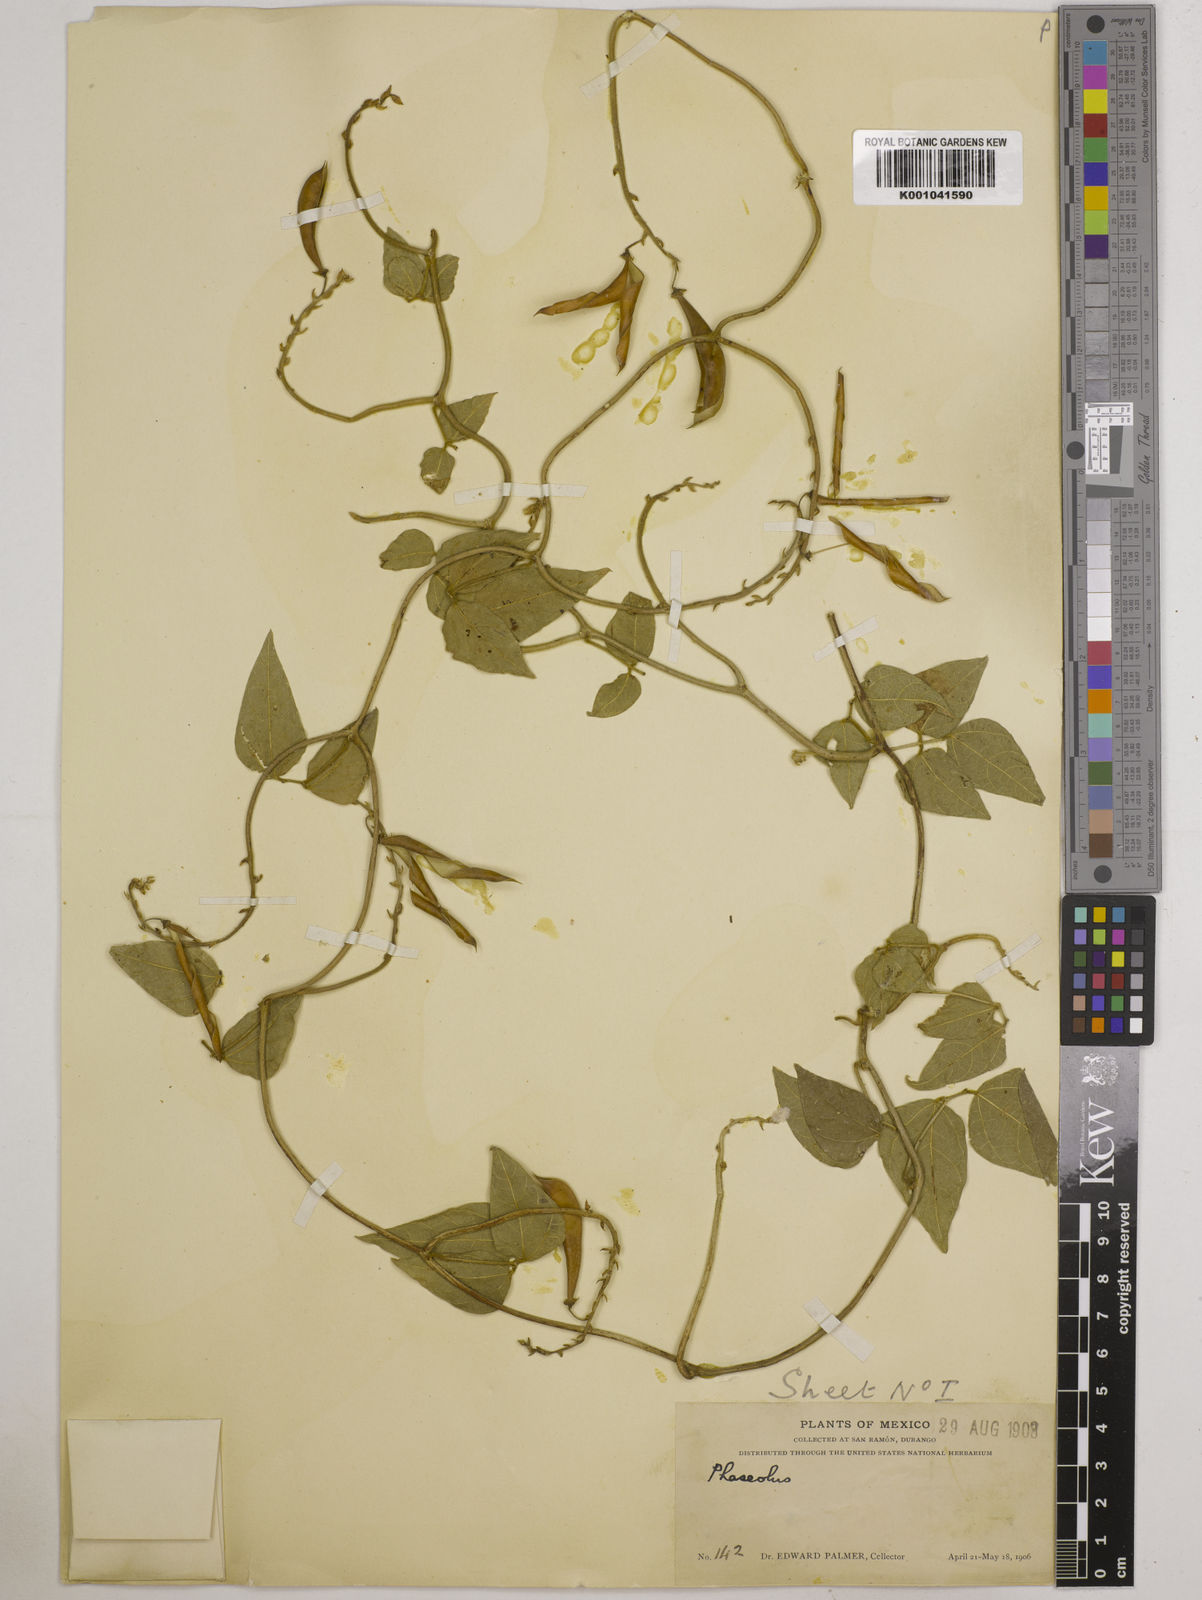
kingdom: Plantae
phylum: Tracheophyta
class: Magnoliopsida
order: Fabales
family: Fabaceae
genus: Phaseolus
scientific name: Phaseolus
